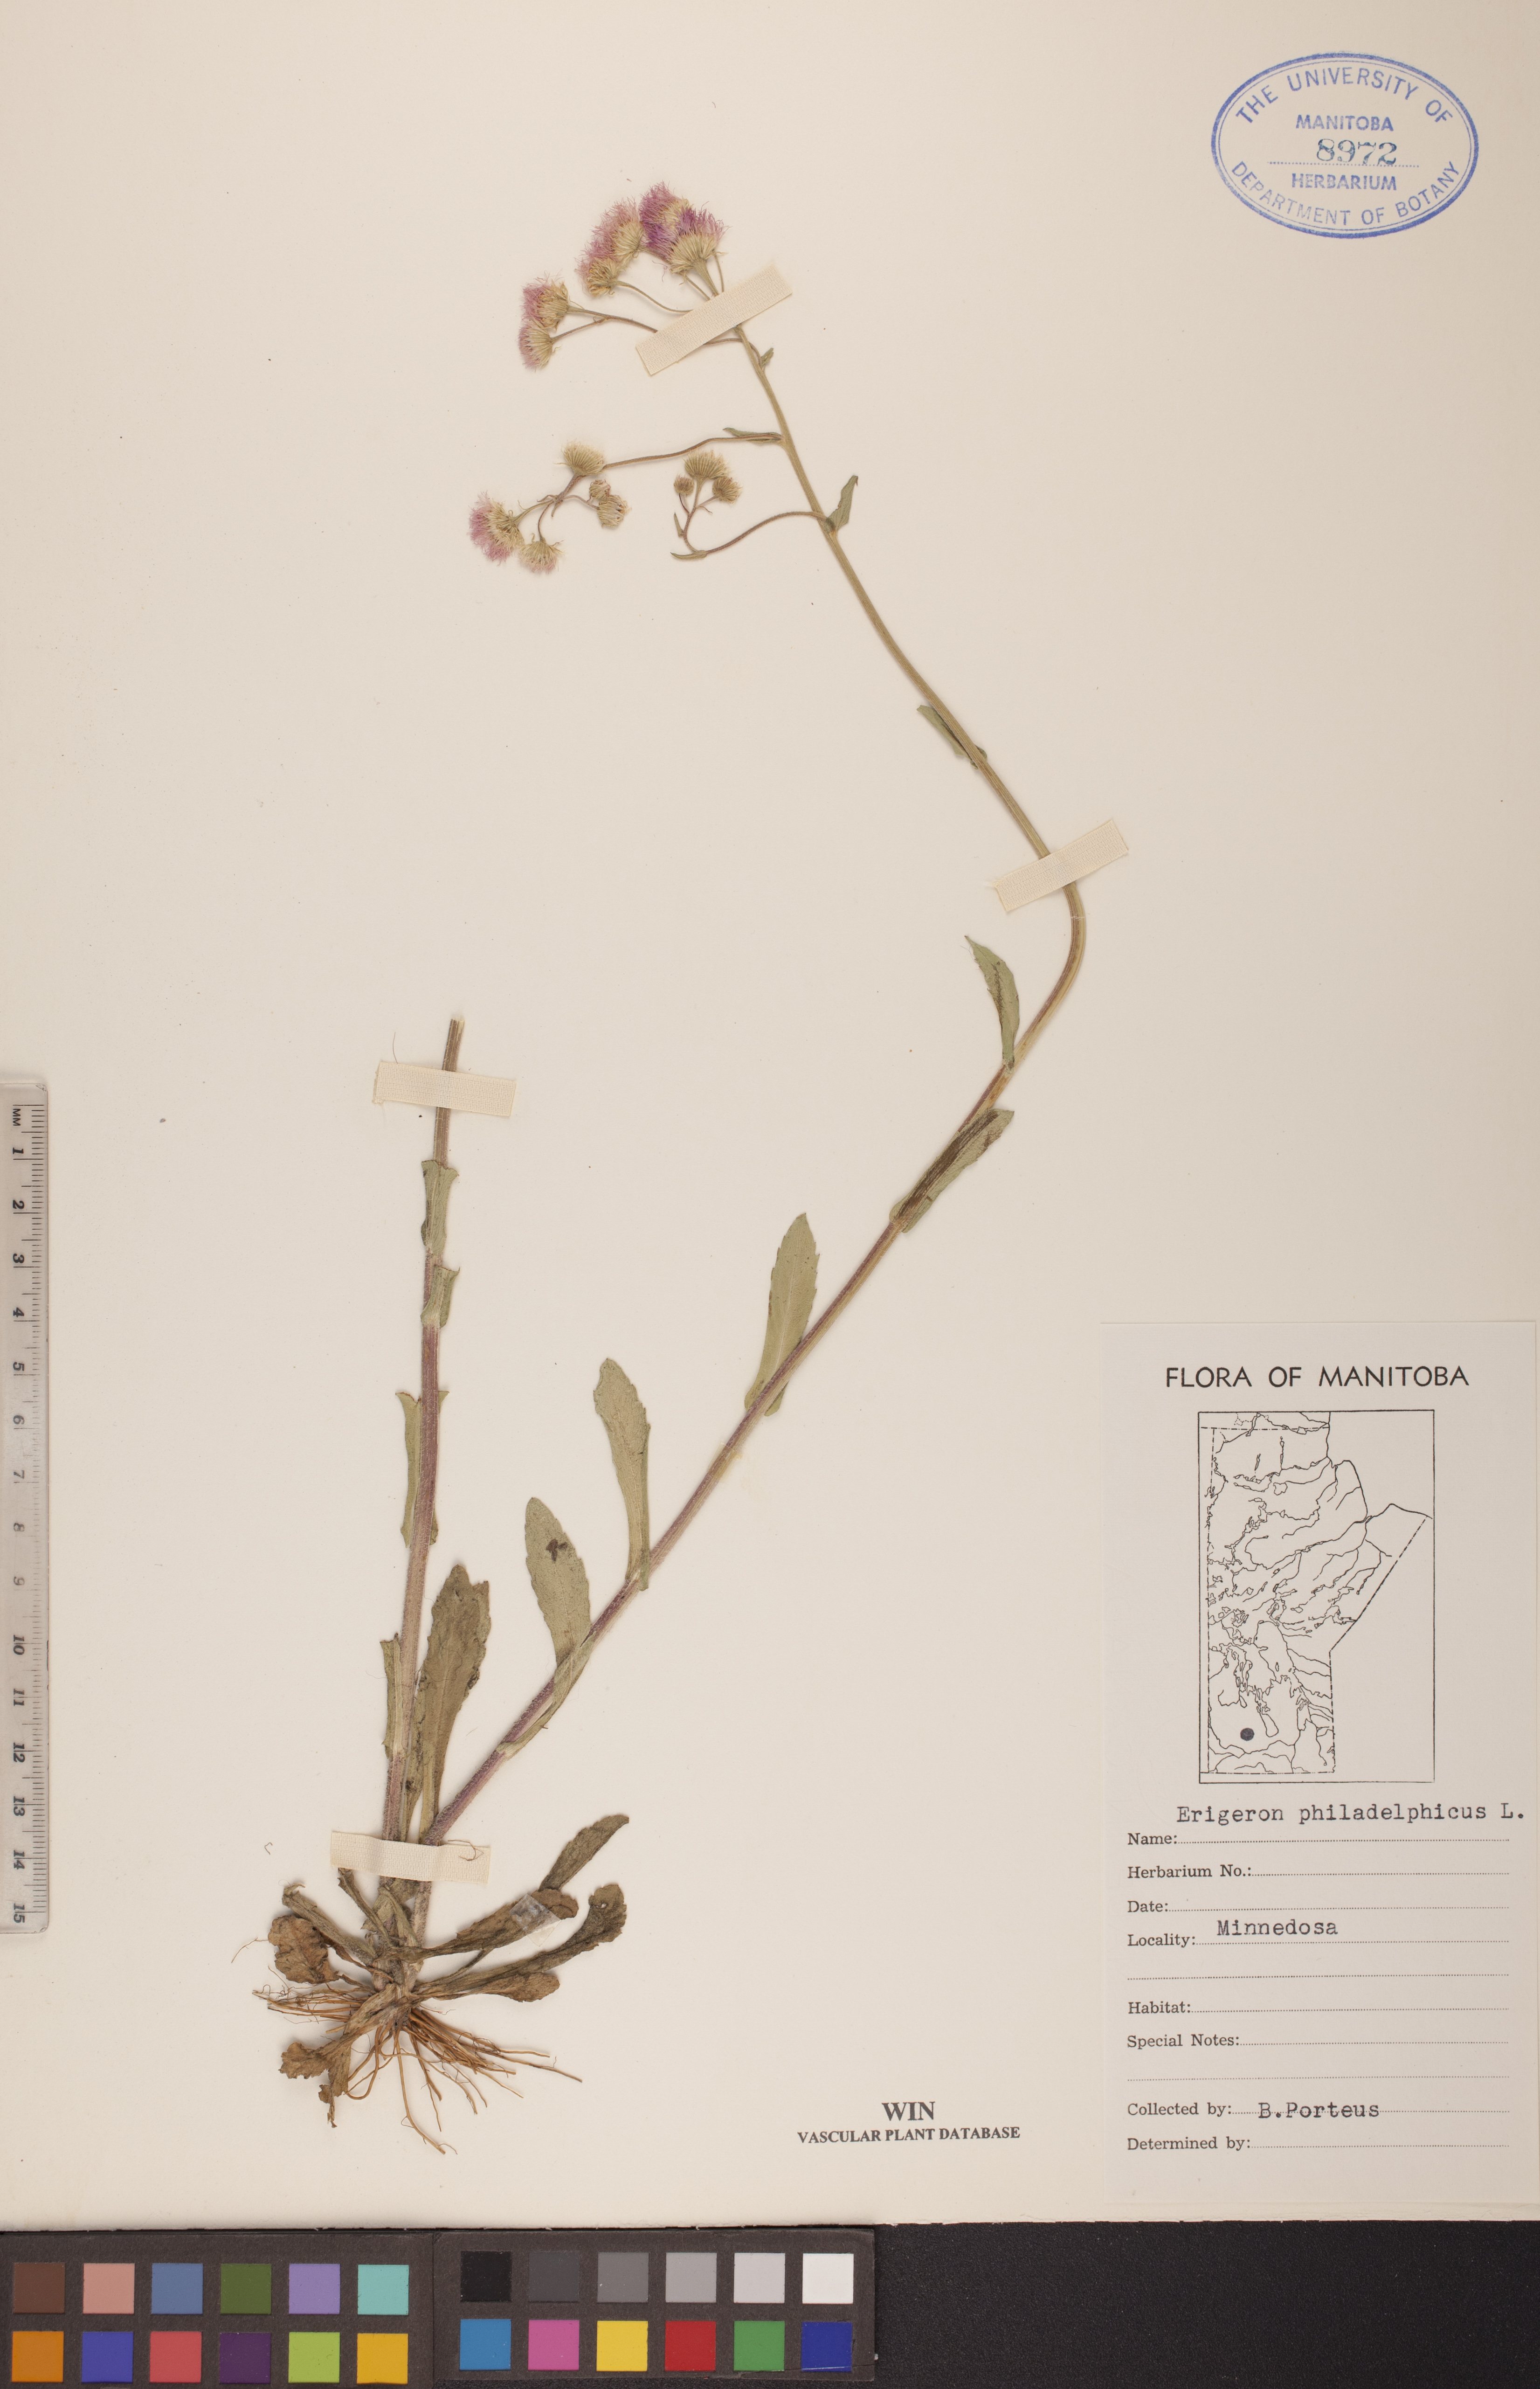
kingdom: Plantae
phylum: Tracheophyta
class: Magnoliopsida
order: Asterales
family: Asteraceae
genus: Erigeron
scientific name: Erigeron philadelphicus
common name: Robin's-plantain
